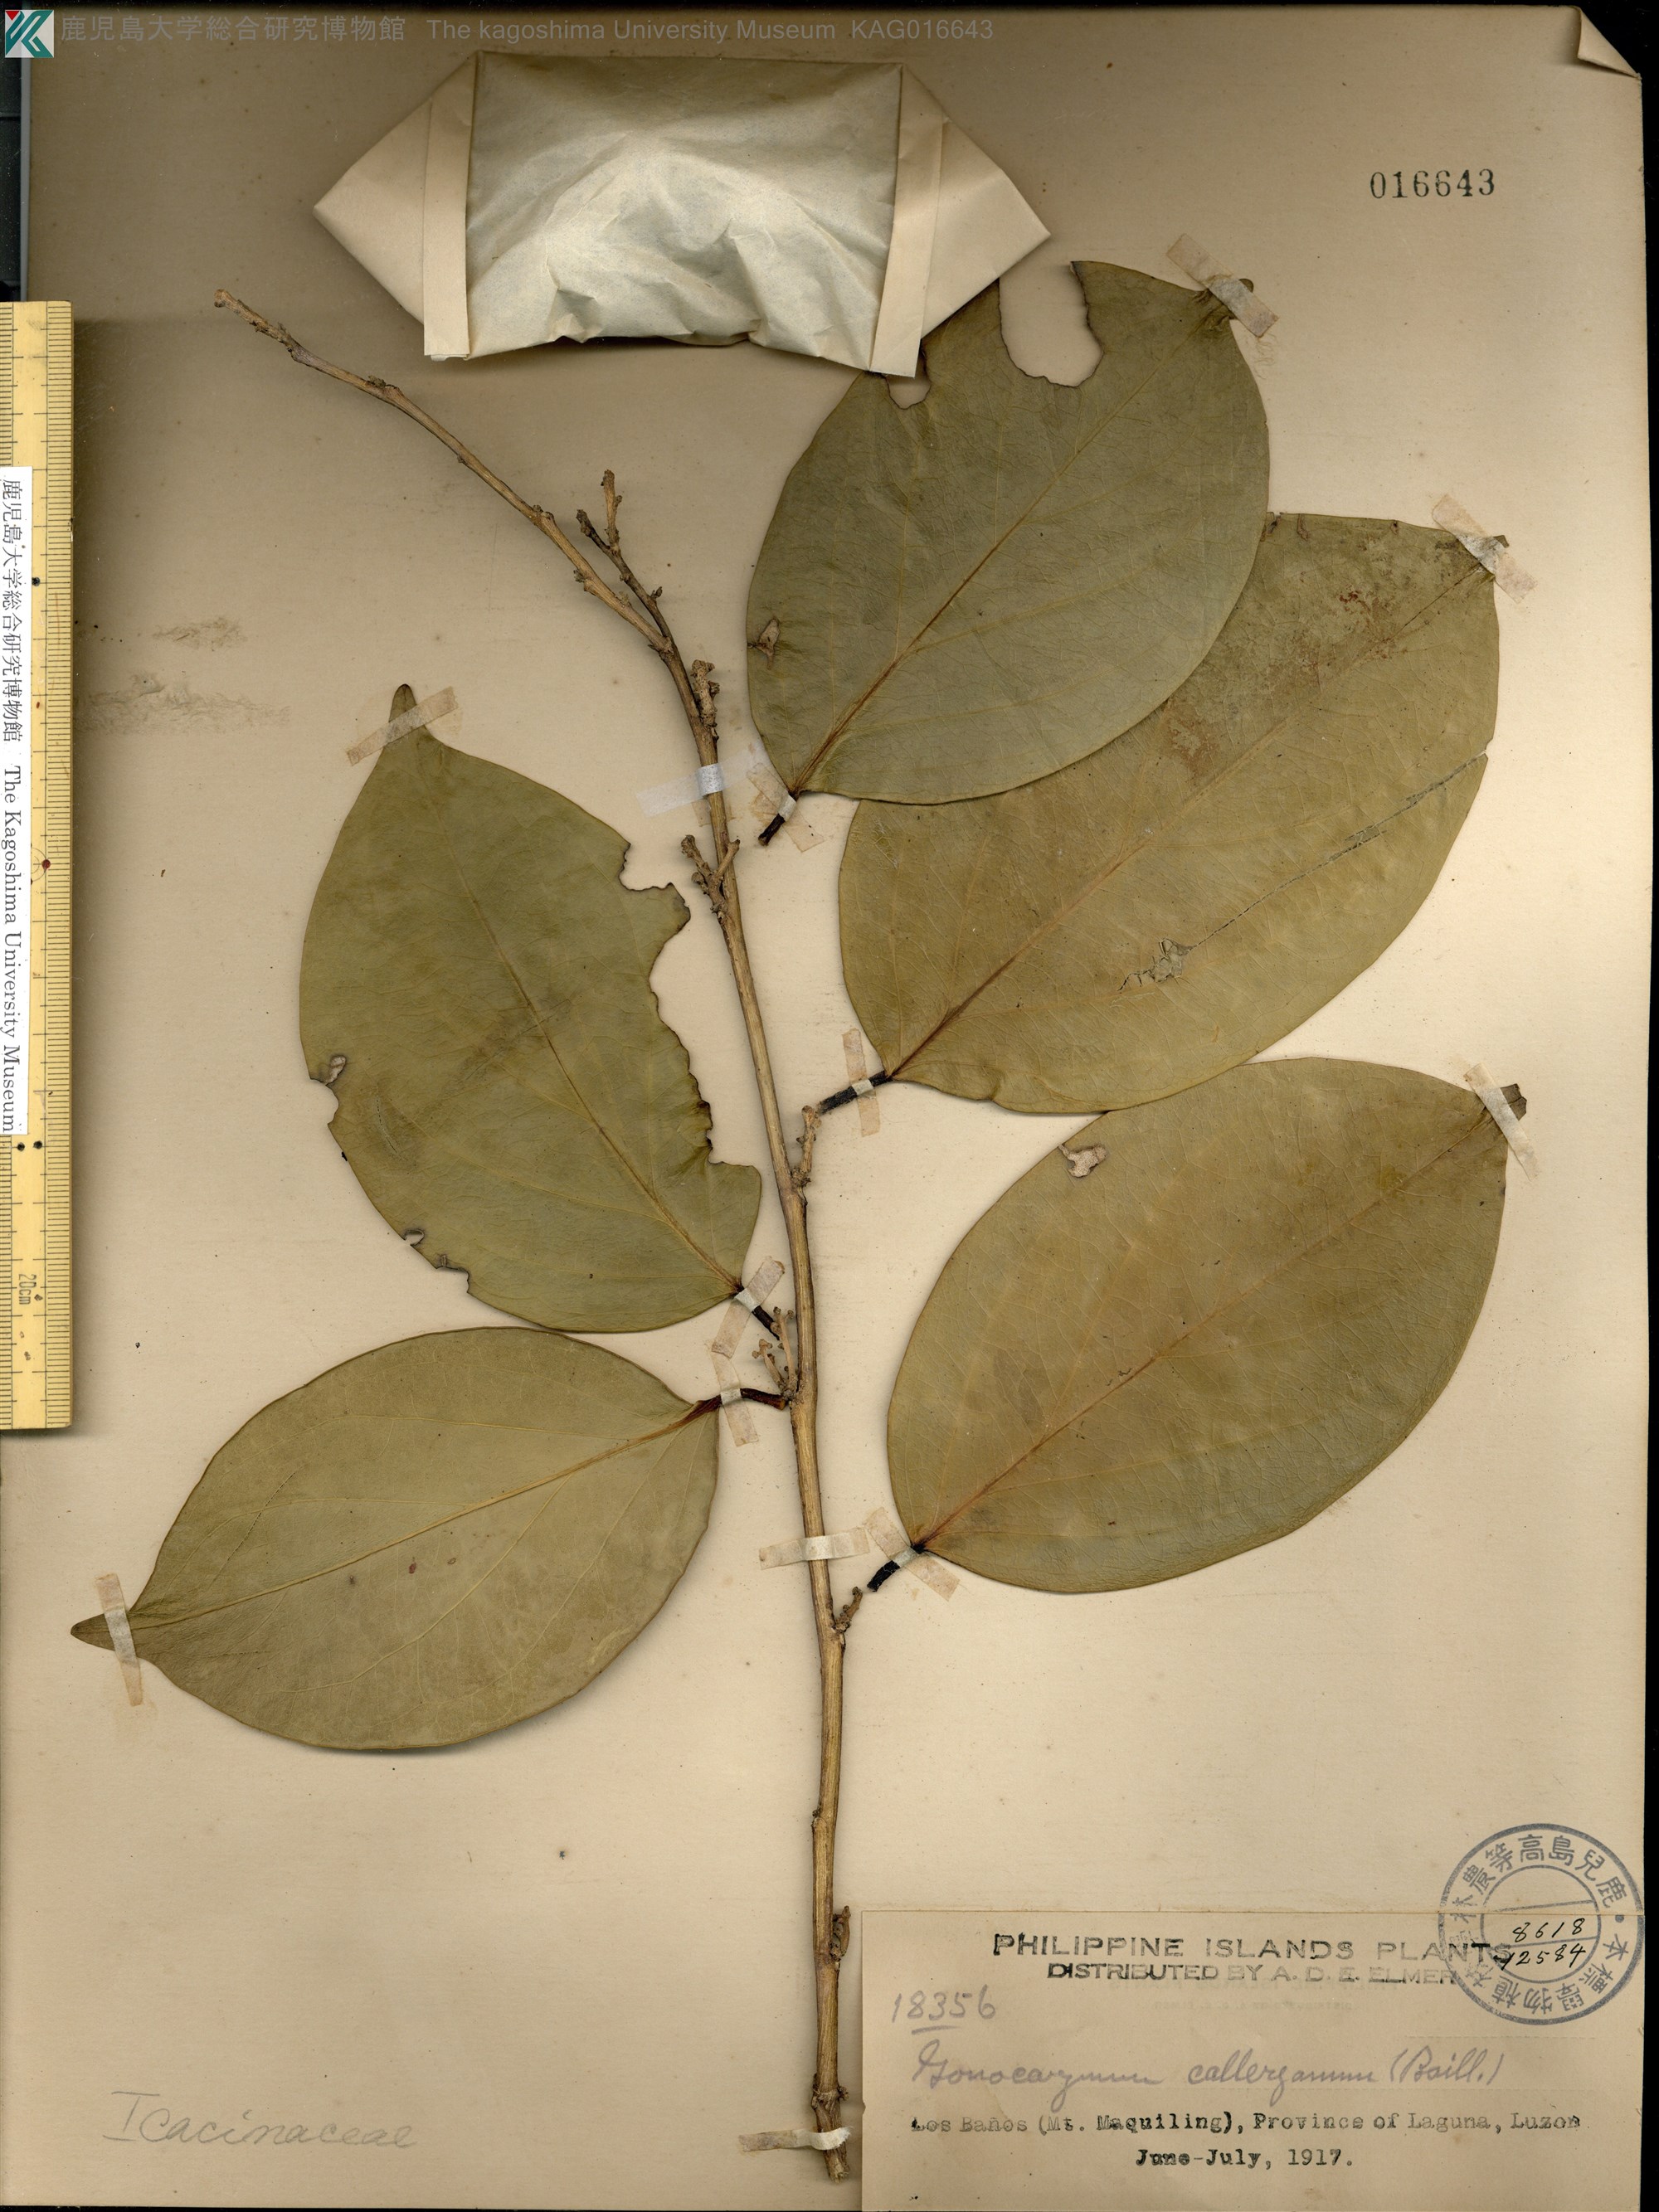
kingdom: Plantae
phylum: Tracheophyta
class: Magnoliopsida
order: Cardiopteridales
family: Cardiopteridaceae
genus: Gonocaryum
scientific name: Gonocaryum calleryanum
